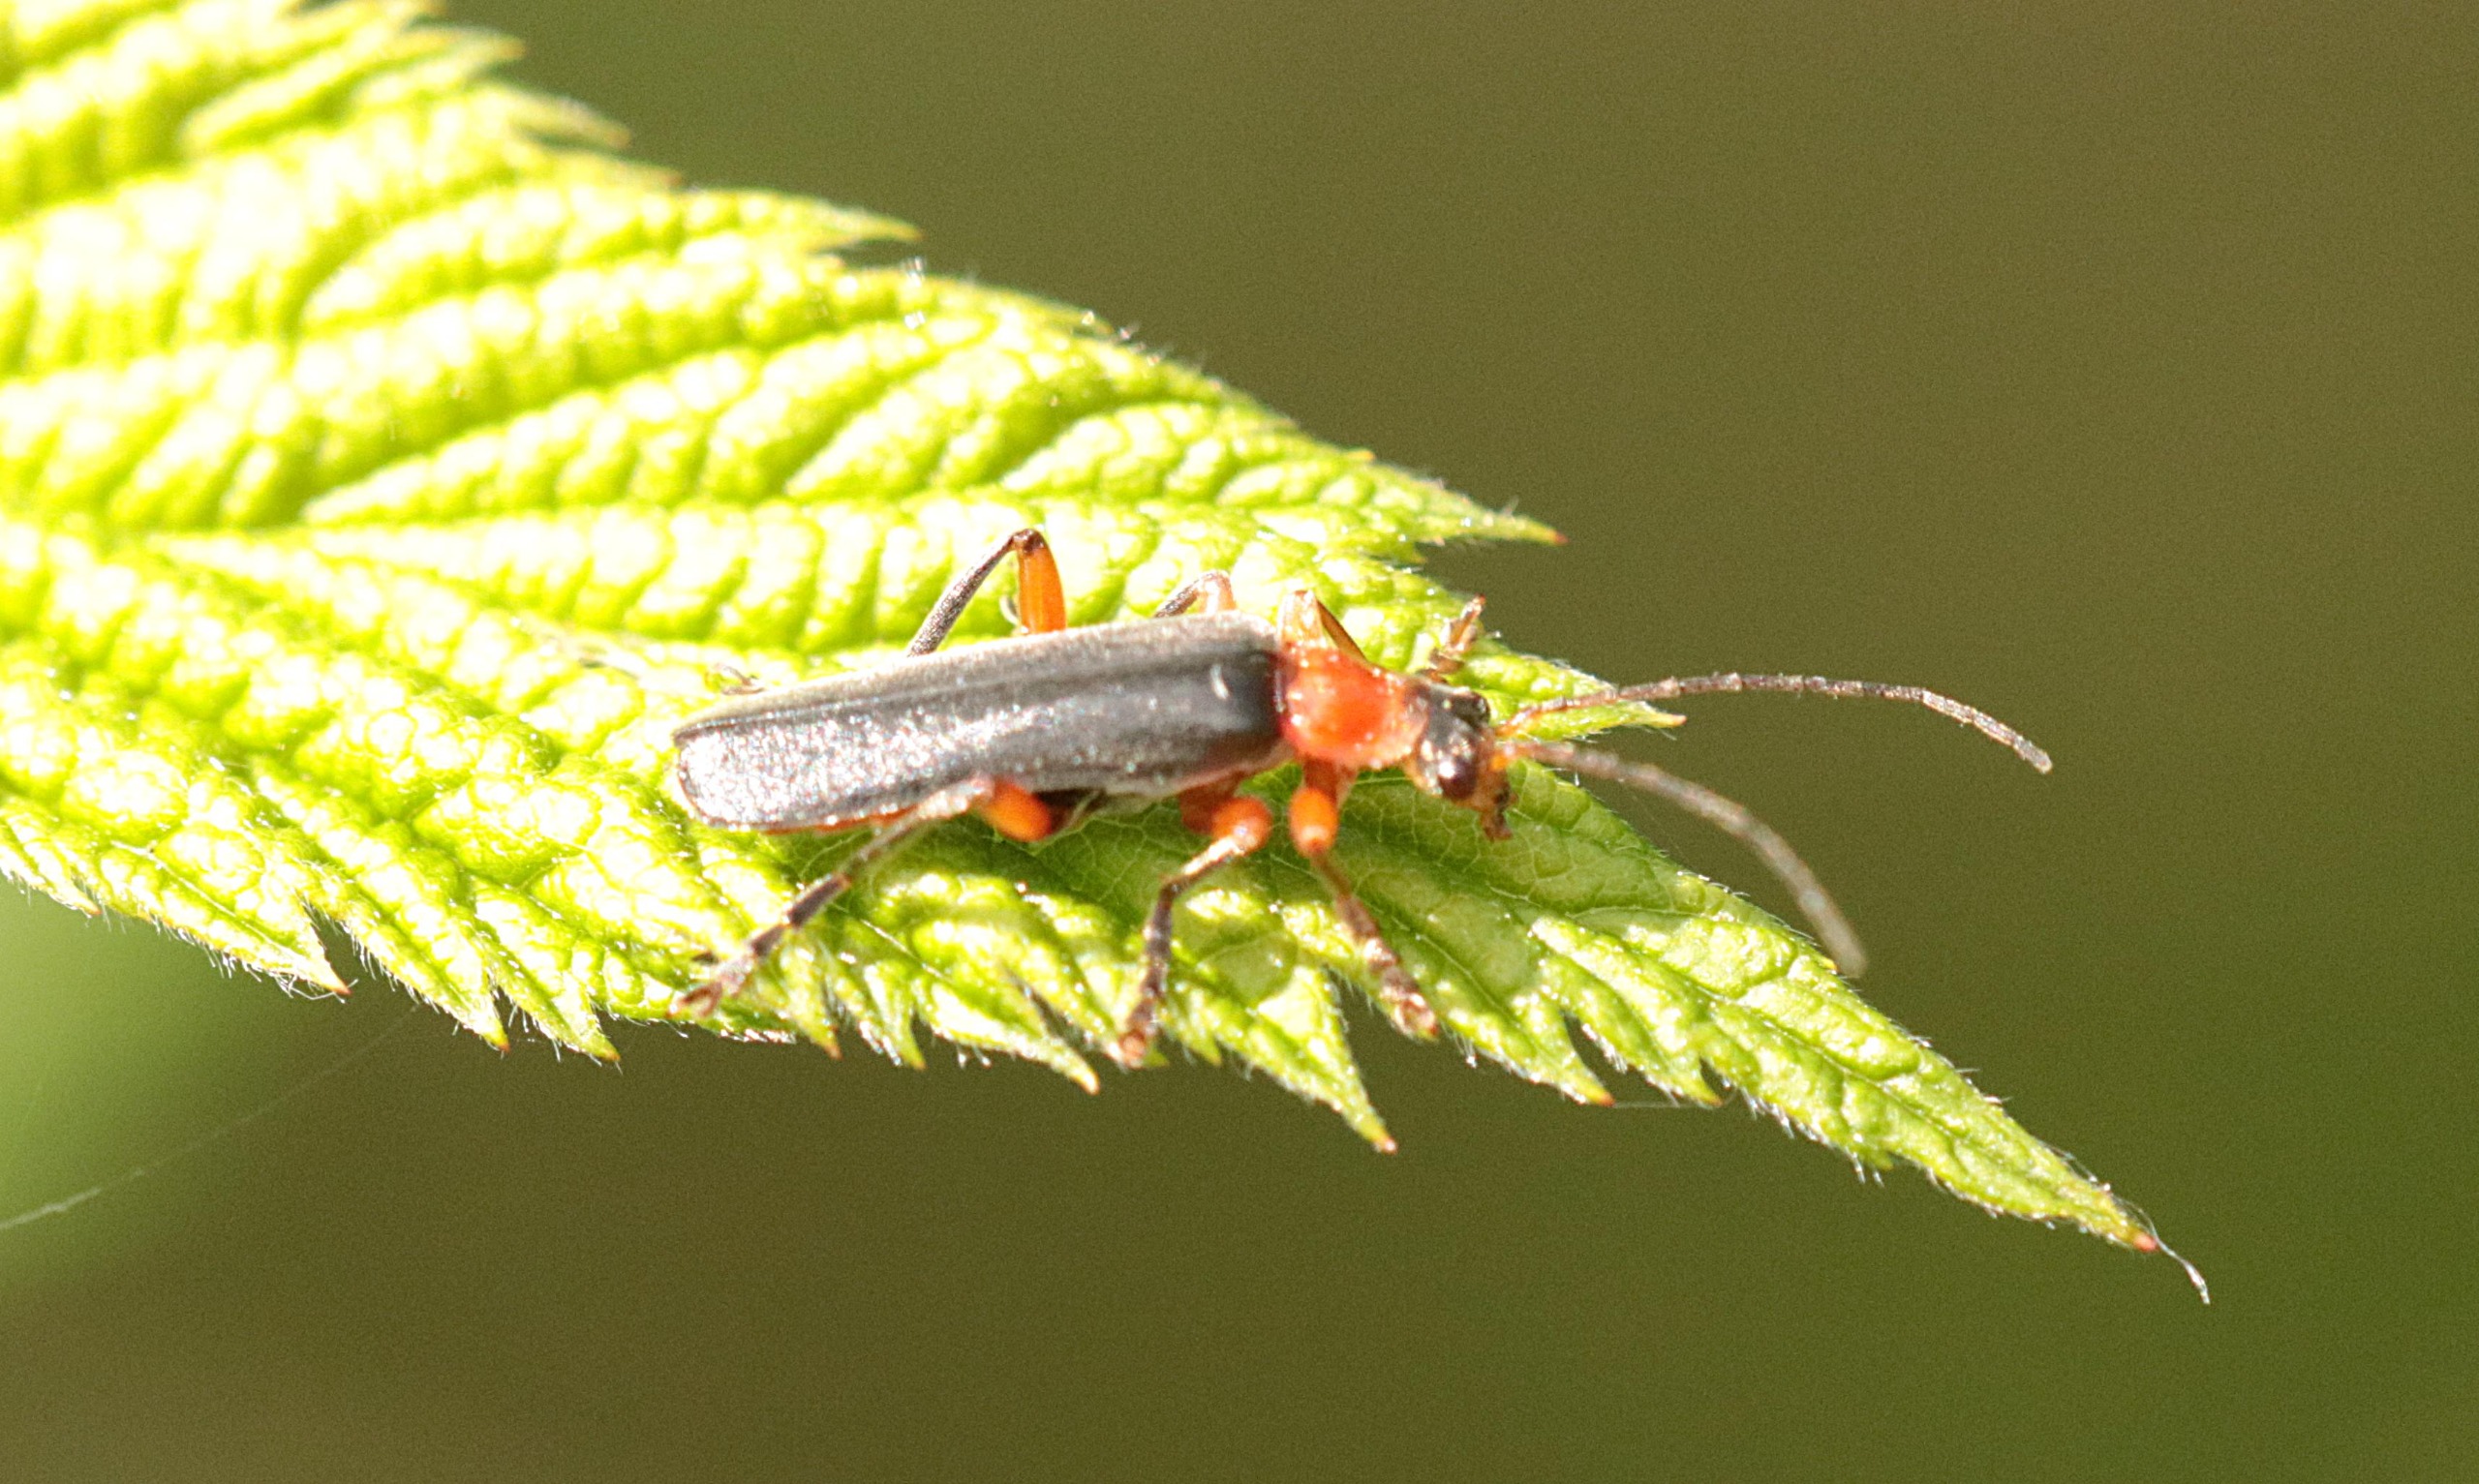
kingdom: Animalia
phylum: Arthropoda
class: Insecta
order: Coleoptera
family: Cantharidae
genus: Cantharis
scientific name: Cantharis pellucida
